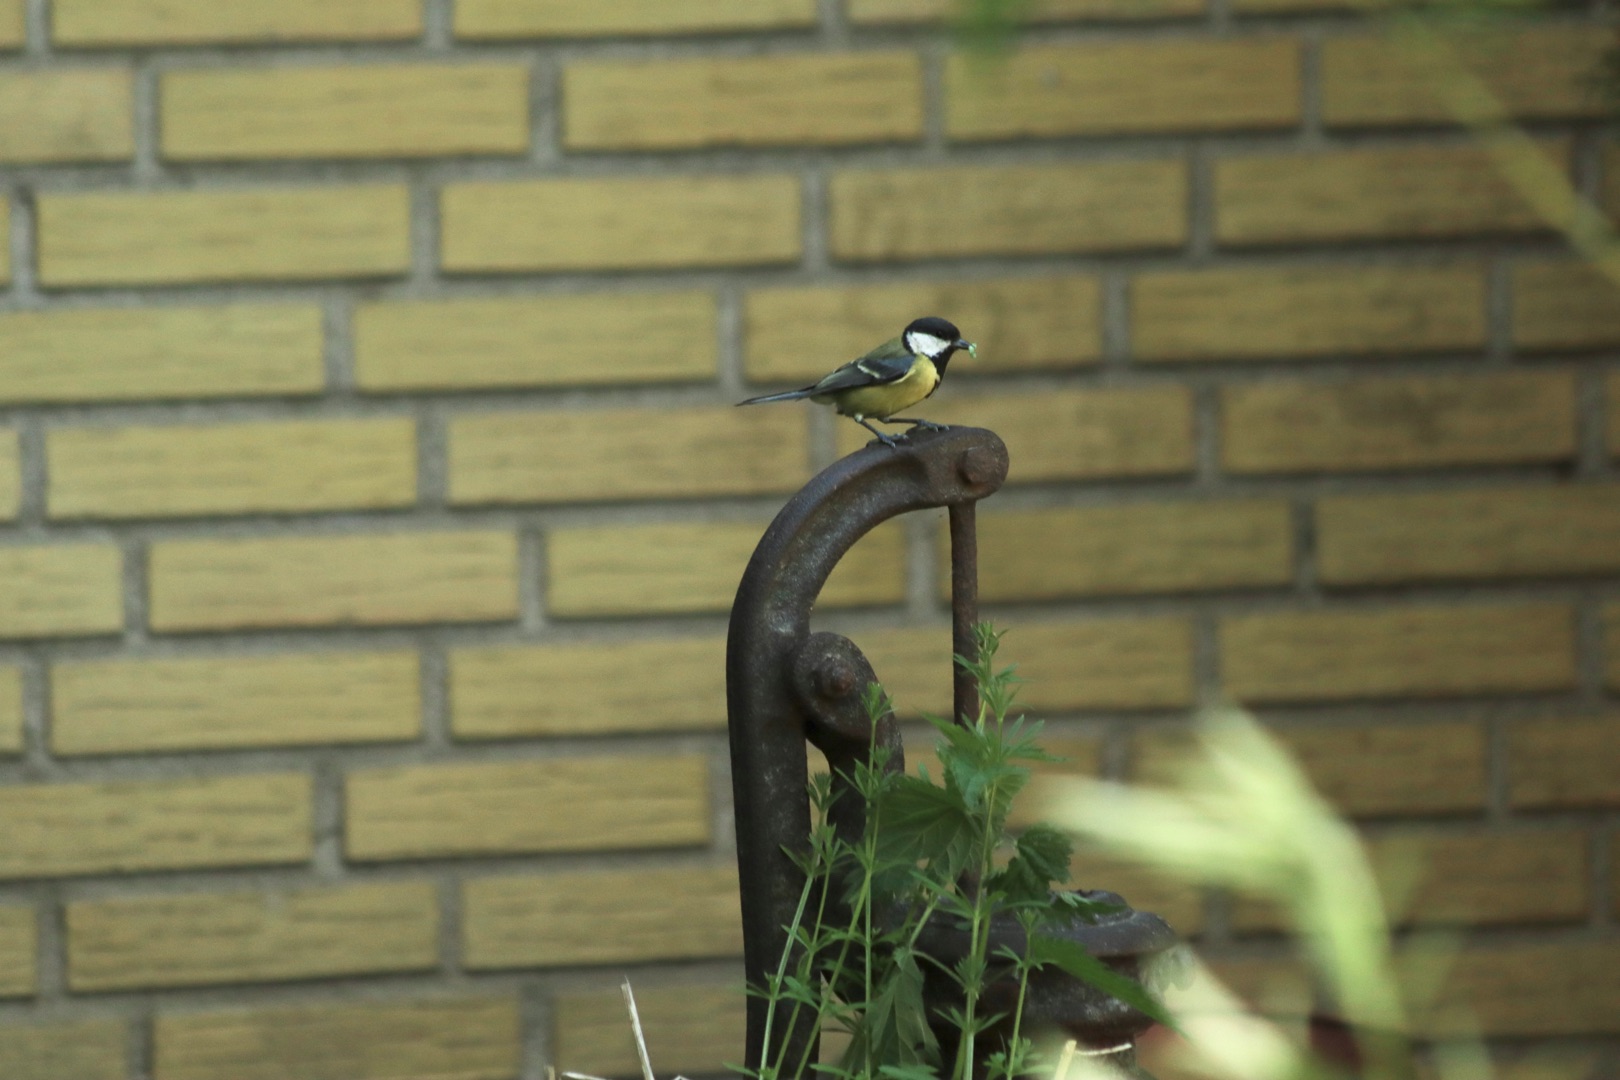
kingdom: Animalia
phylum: Chordata
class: Aves
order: Passeriformes
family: Paridae
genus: Parus
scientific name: Parus major
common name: Musvit
